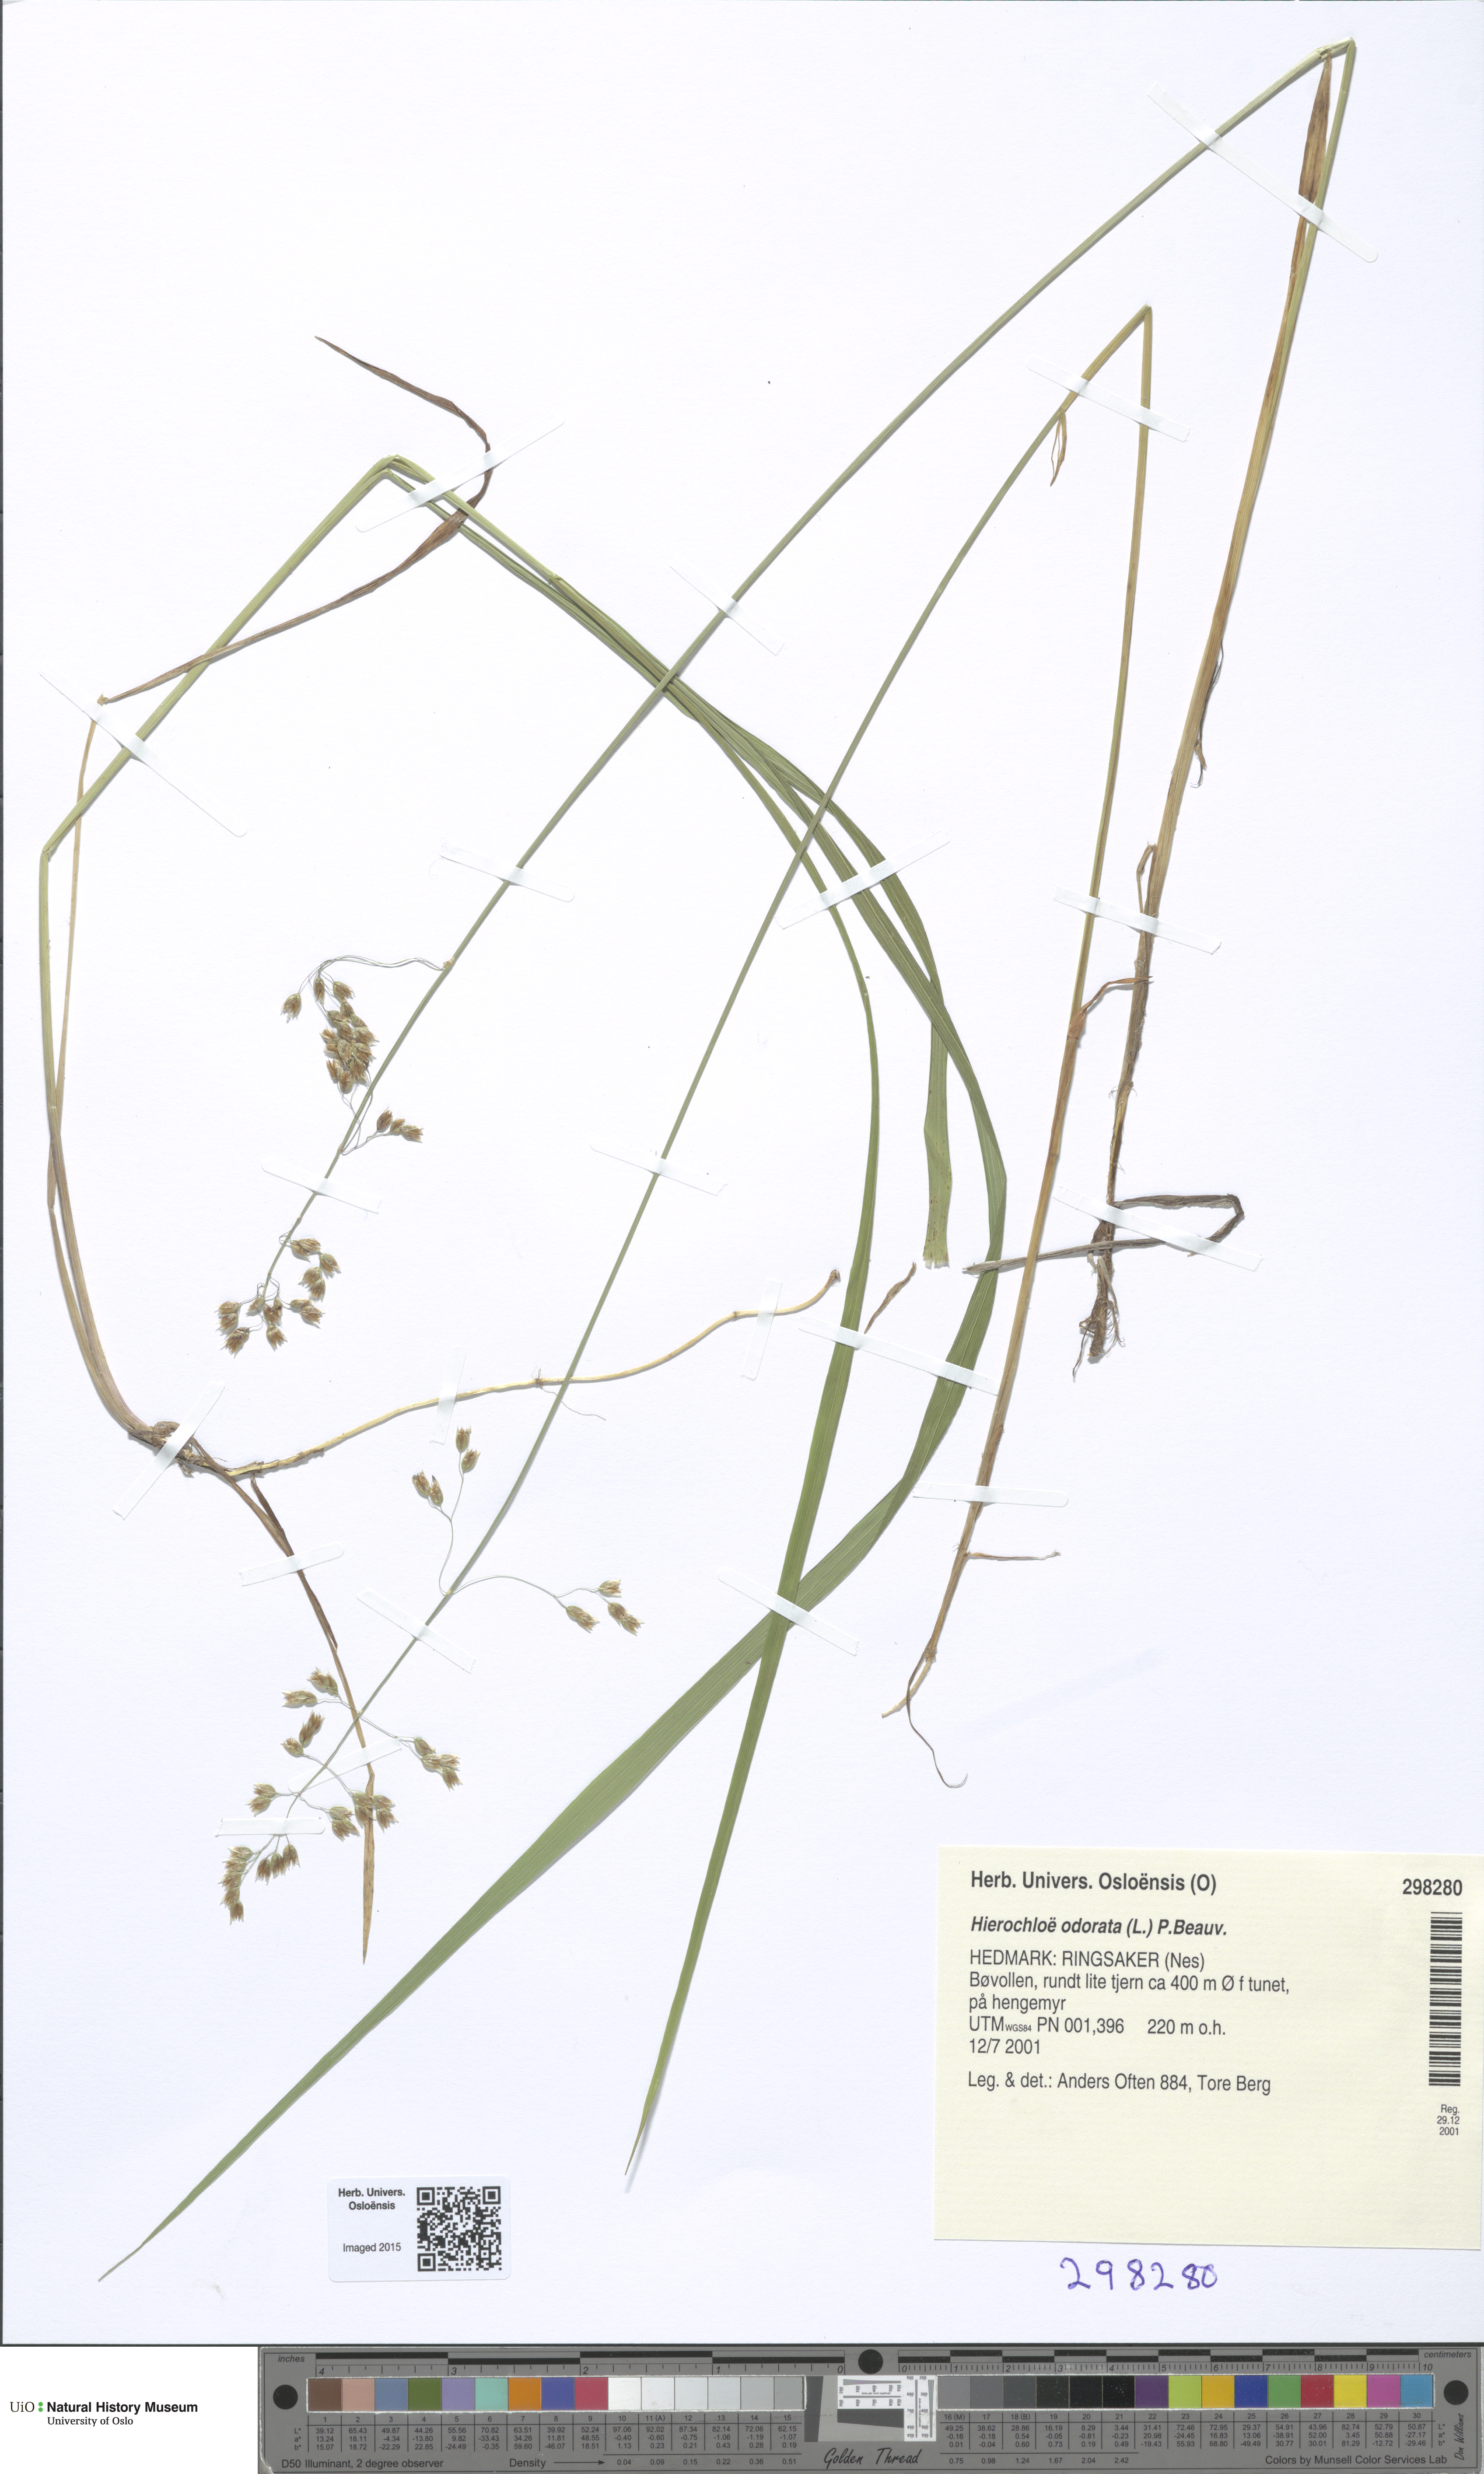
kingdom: Plantae
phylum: Tracheophyta
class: Liliopsida
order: Poales
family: Poaceae
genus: Anthoxanthum
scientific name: Anthoxanthum nitens
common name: Holy grass
